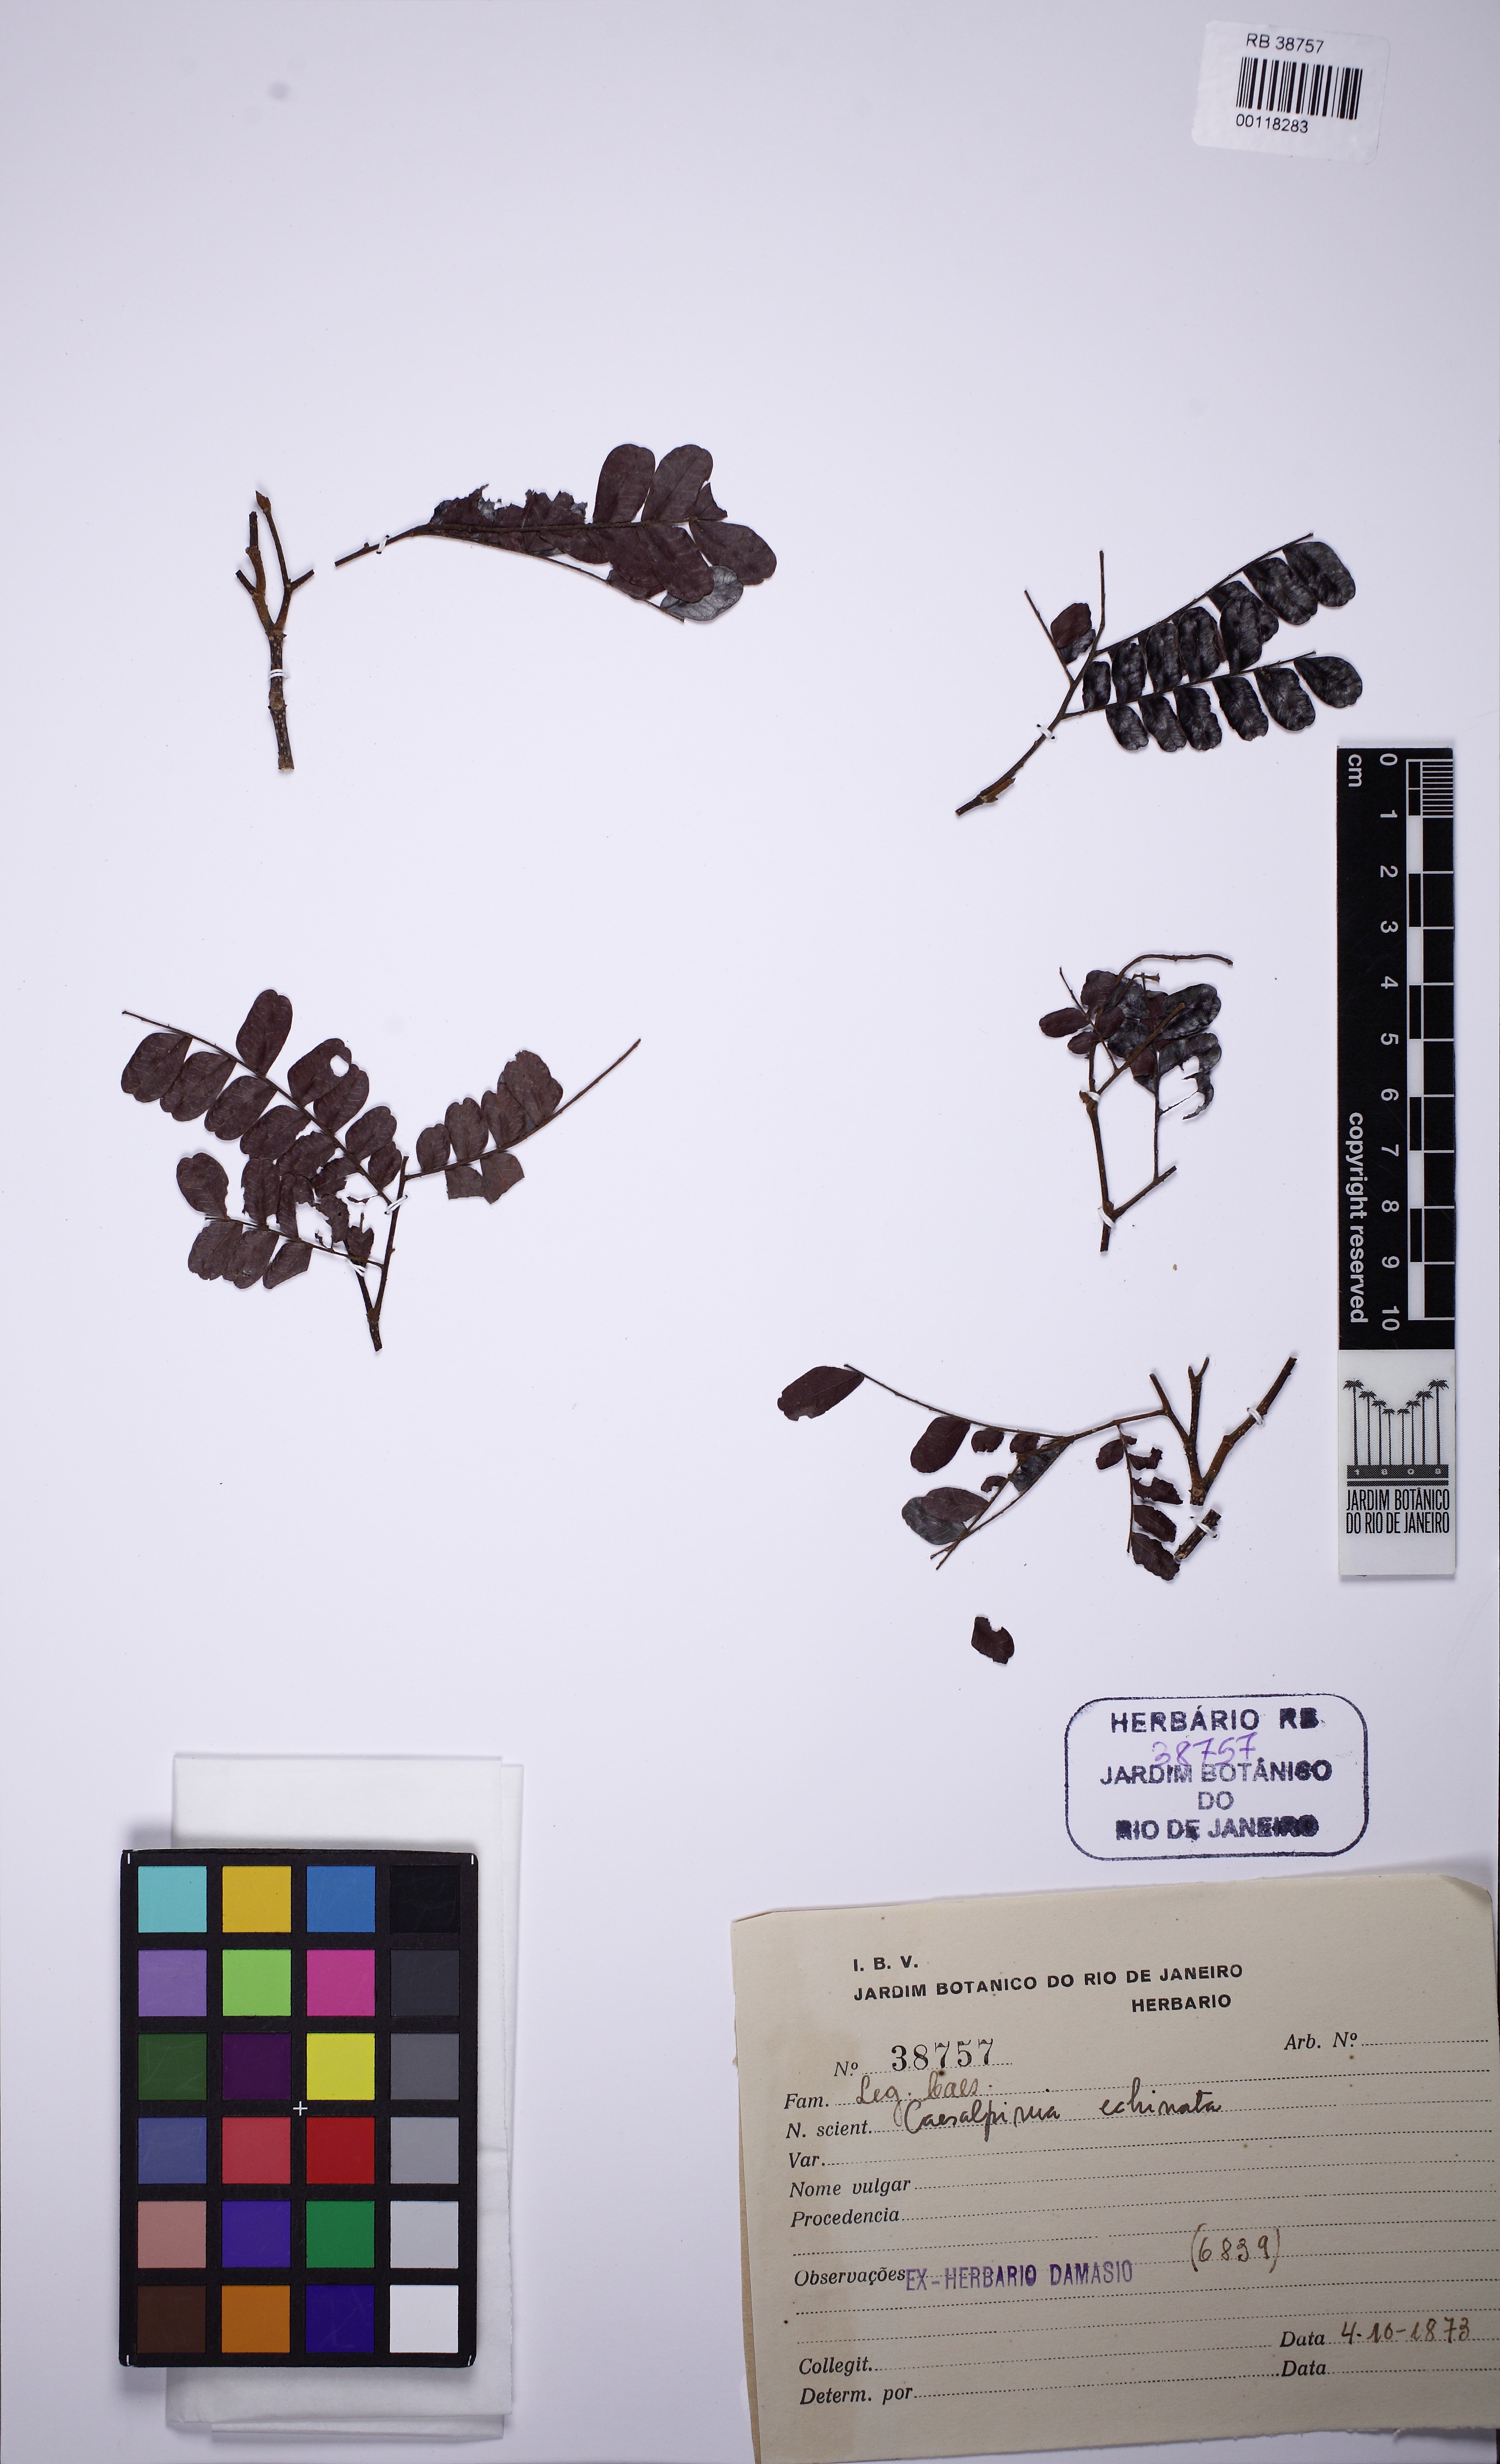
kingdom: Plantae
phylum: Tracheophyta
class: Magnoliopsida
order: Fabales
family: Fabaceae
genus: Paubrasilia
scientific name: Paubrasilia echinata
